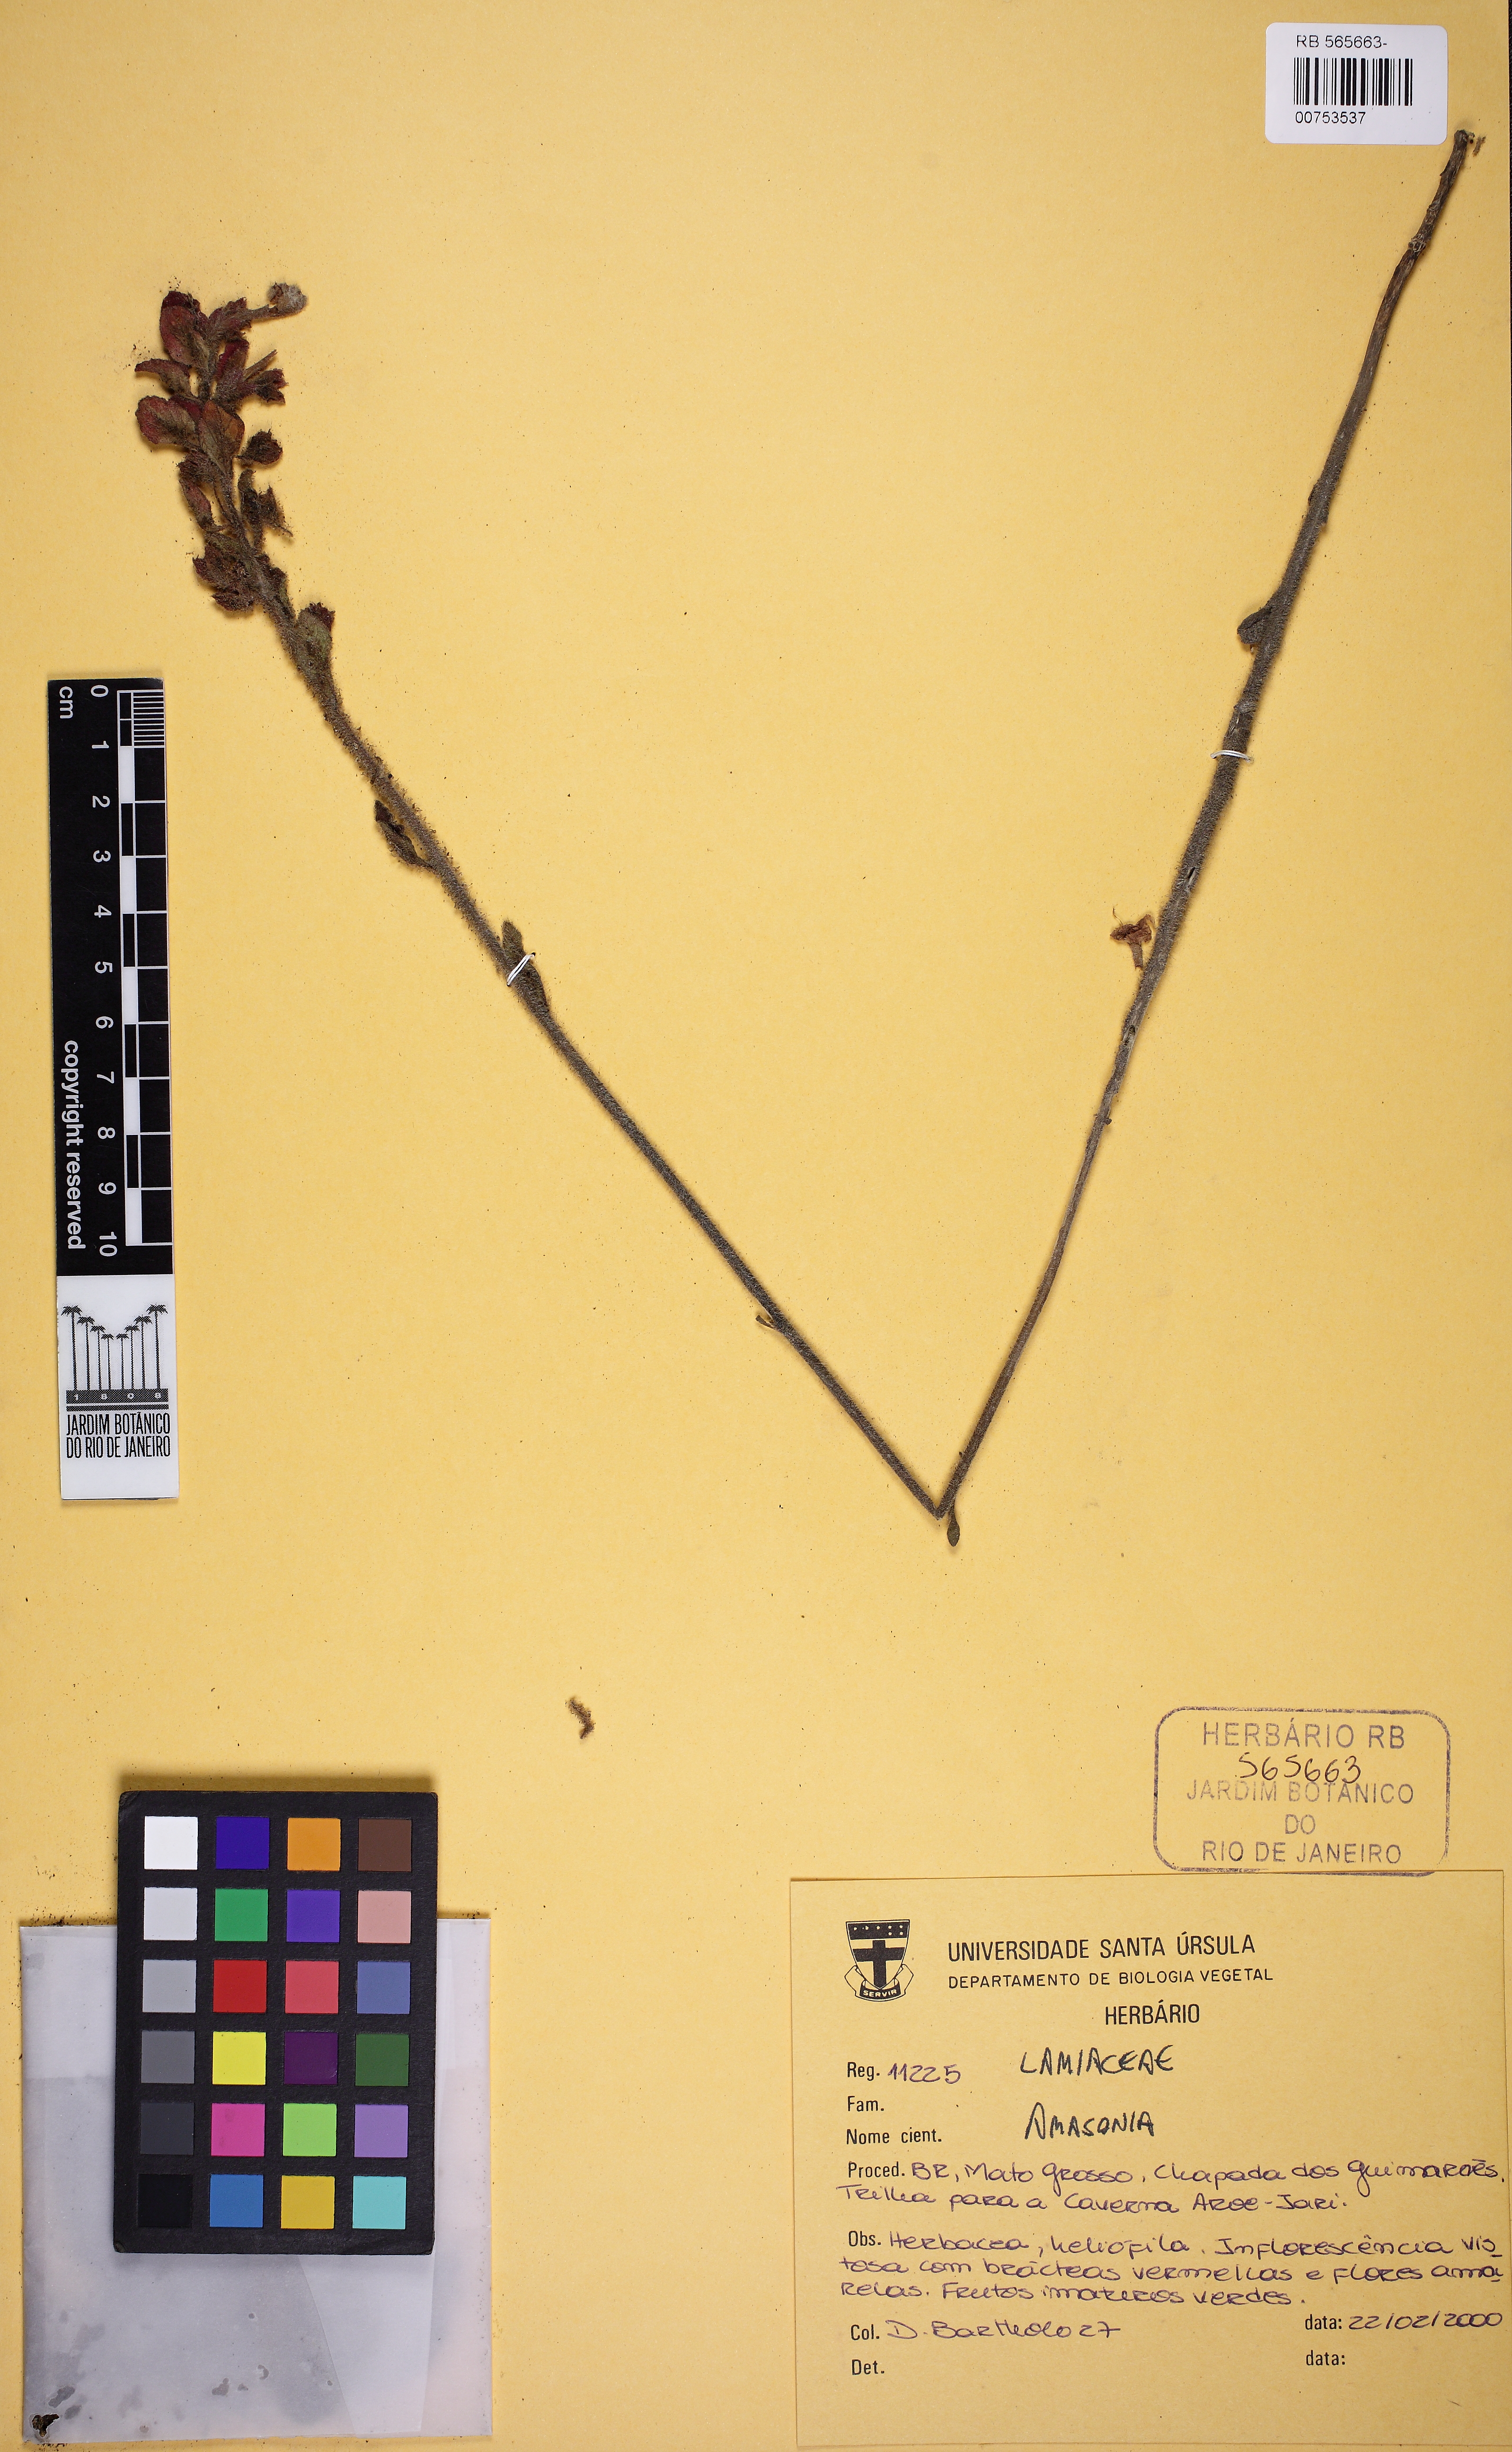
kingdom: Plantae
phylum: Tracheophyta
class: Magnoliopsida
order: Lamiales
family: Lamiaceae
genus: Amasonia
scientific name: Amasonia
